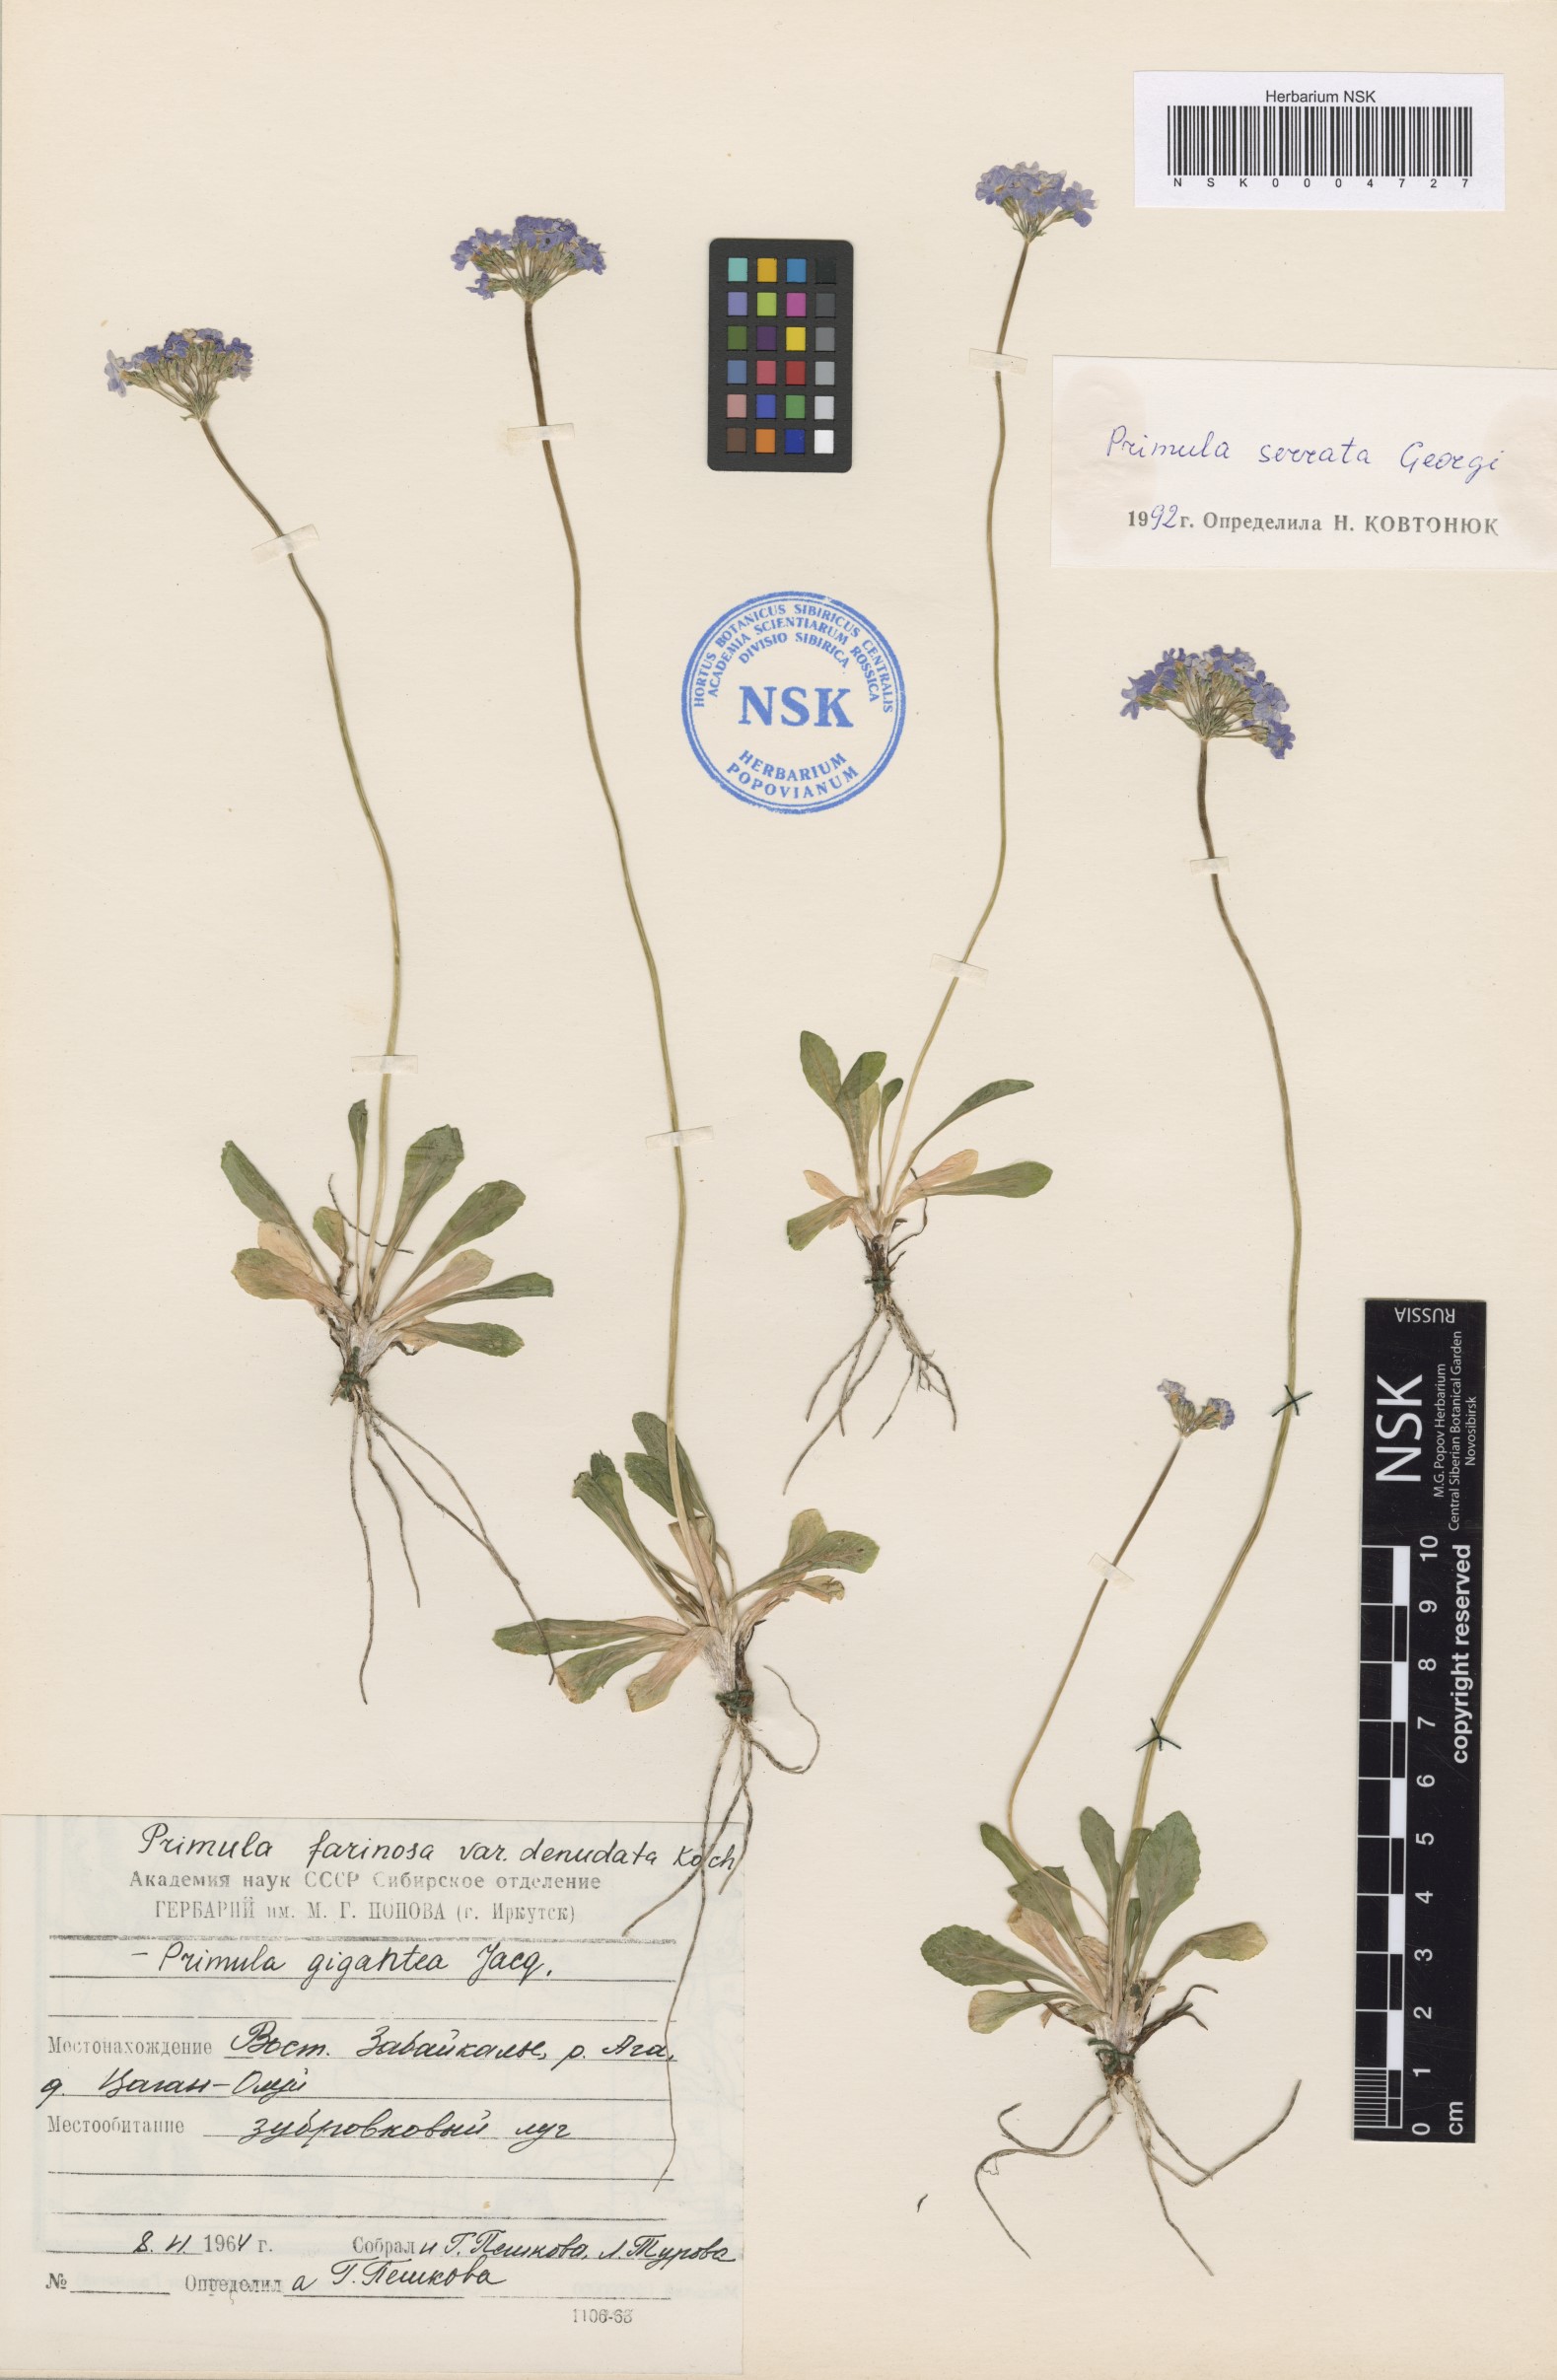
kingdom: Plantae
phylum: Tracheophyta
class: Magnoliopsida
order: Ericales
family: Primulaceae
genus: Primula
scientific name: Primula serrata
